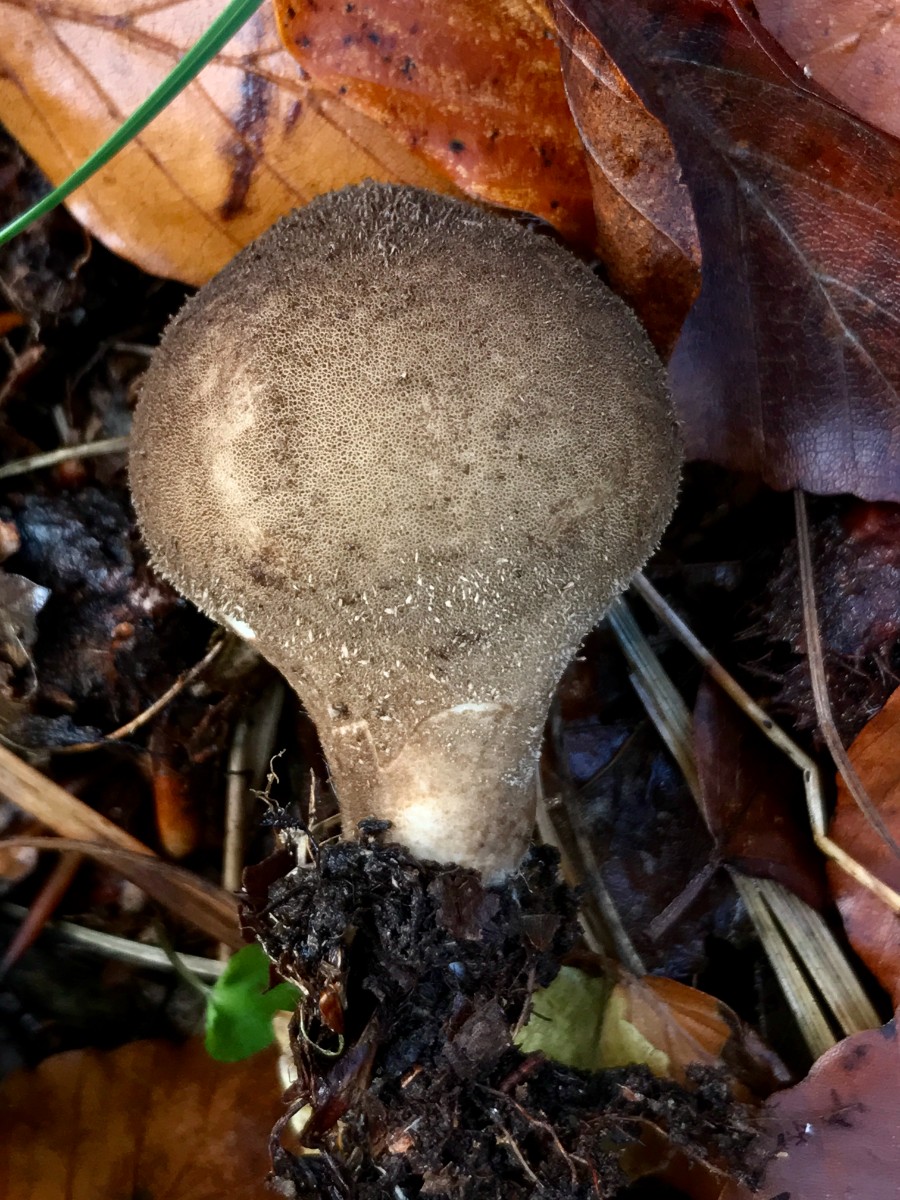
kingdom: Fungi
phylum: Basidiomycota
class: Agaricomycetes
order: Agaricales
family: Lycoperdaceae
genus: Lycoperdon
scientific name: Lycoperdon perlatum
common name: krystal-støvbold
